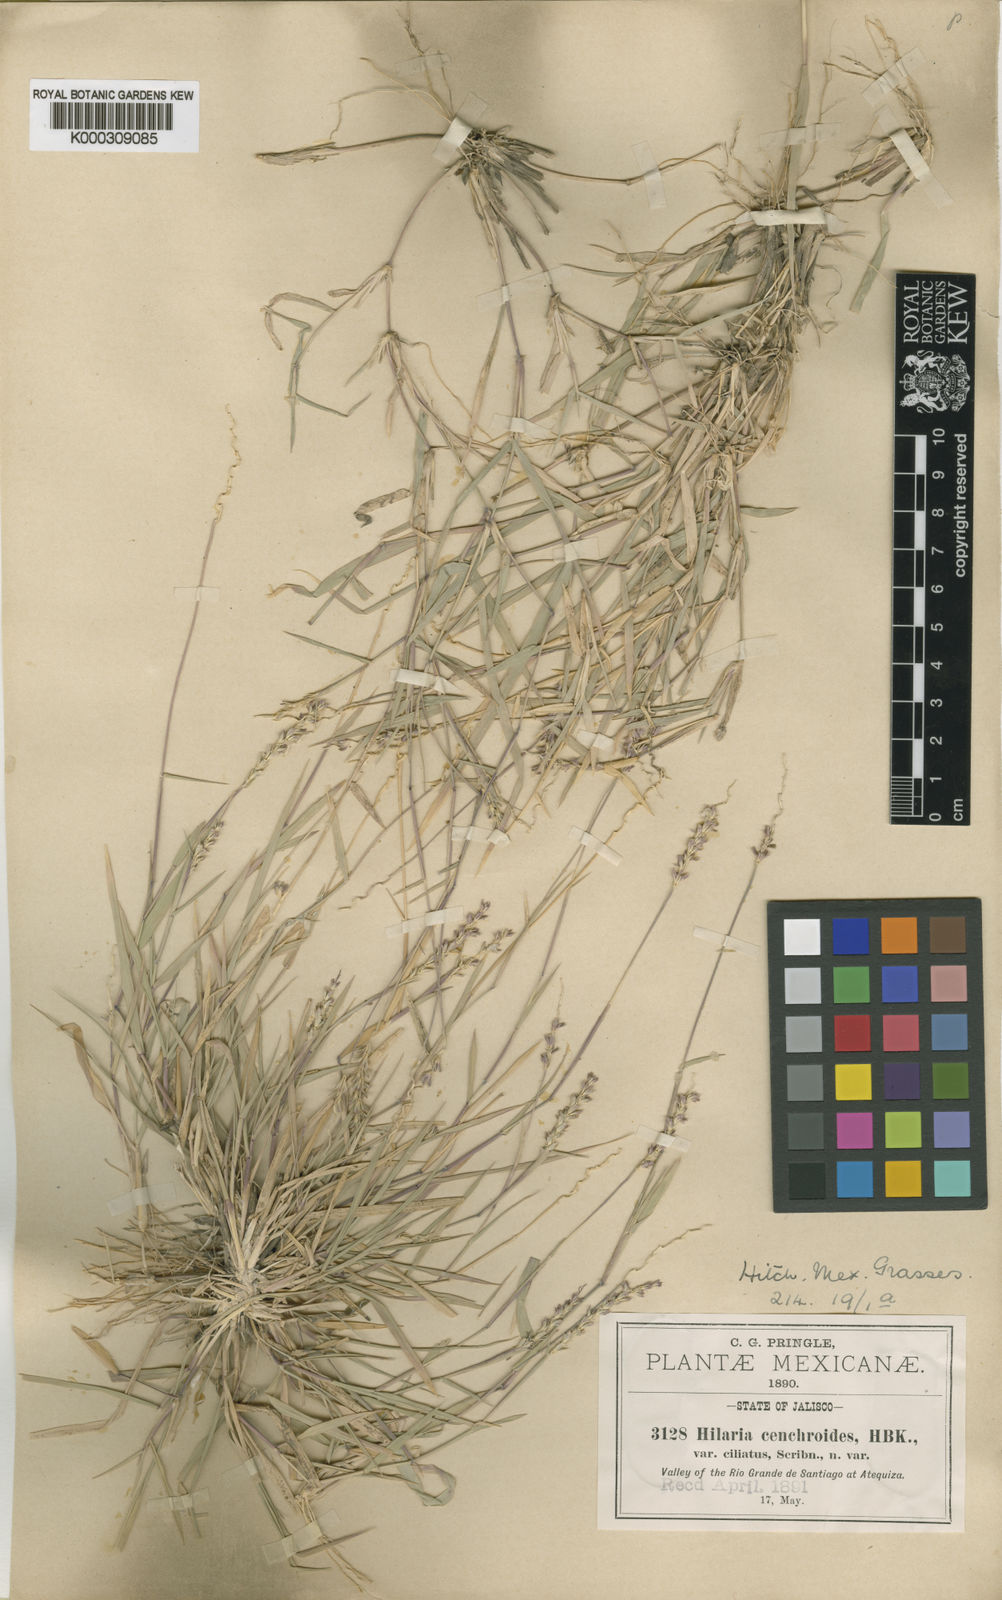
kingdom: Plantae
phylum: Tracheophyta
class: Liliopsida
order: Poales
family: Poaceae
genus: Hilaria
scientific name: Hilaria ciliata
